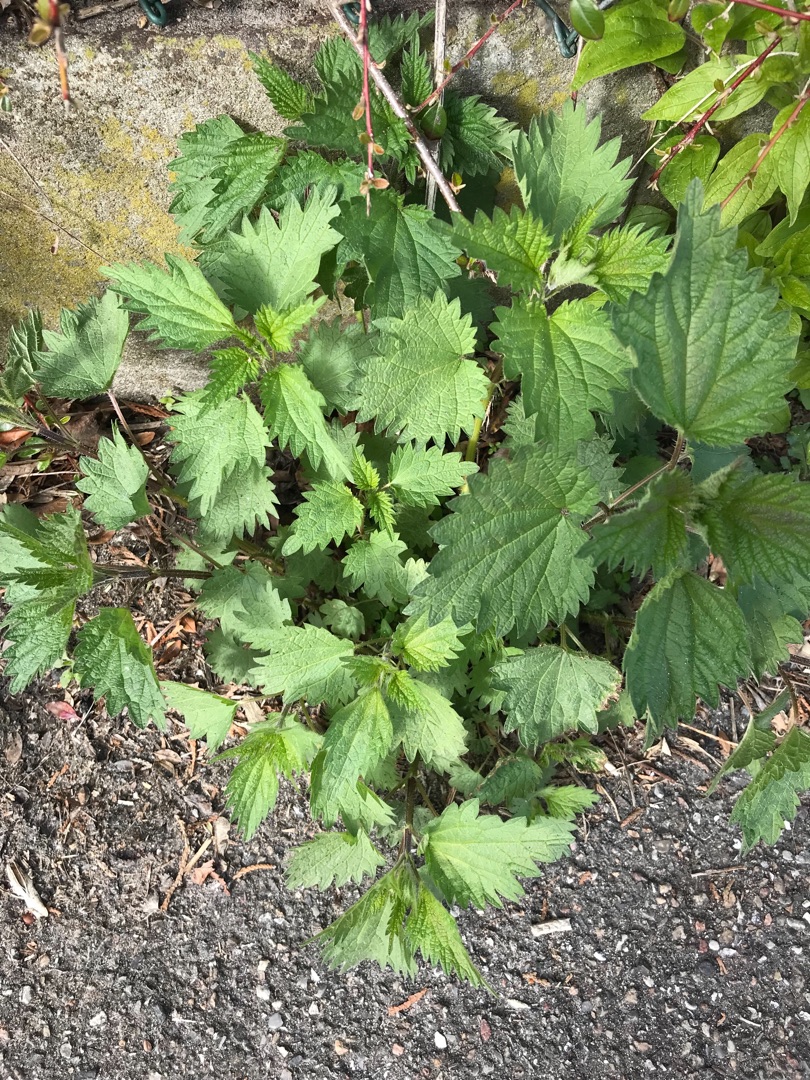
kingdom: Plantae
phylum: Tracheophyta
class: Magnoliopsida
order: Rosales
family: Urticaceae
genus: Urtica
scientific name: Urtica dioica
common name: Stor nælde
